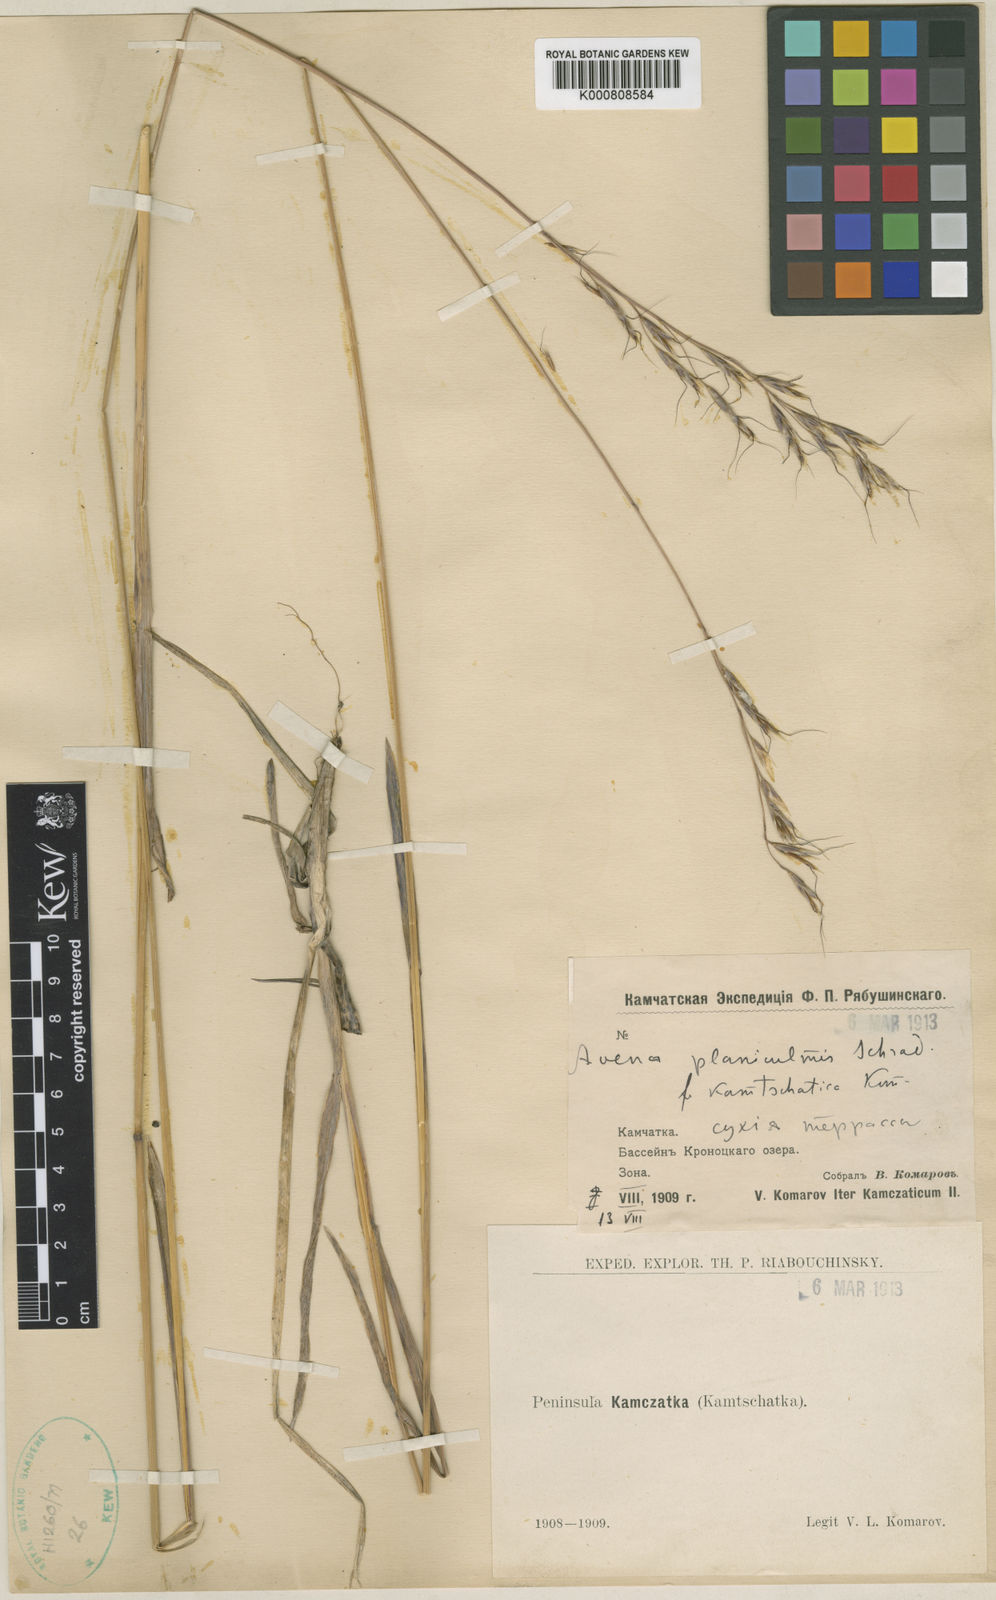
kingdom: Plantae
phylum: Tracheophyta
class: Liliopsida
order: Poales
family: Poaceae
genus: Helictochloa
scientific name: Helictochloa planiculmis
